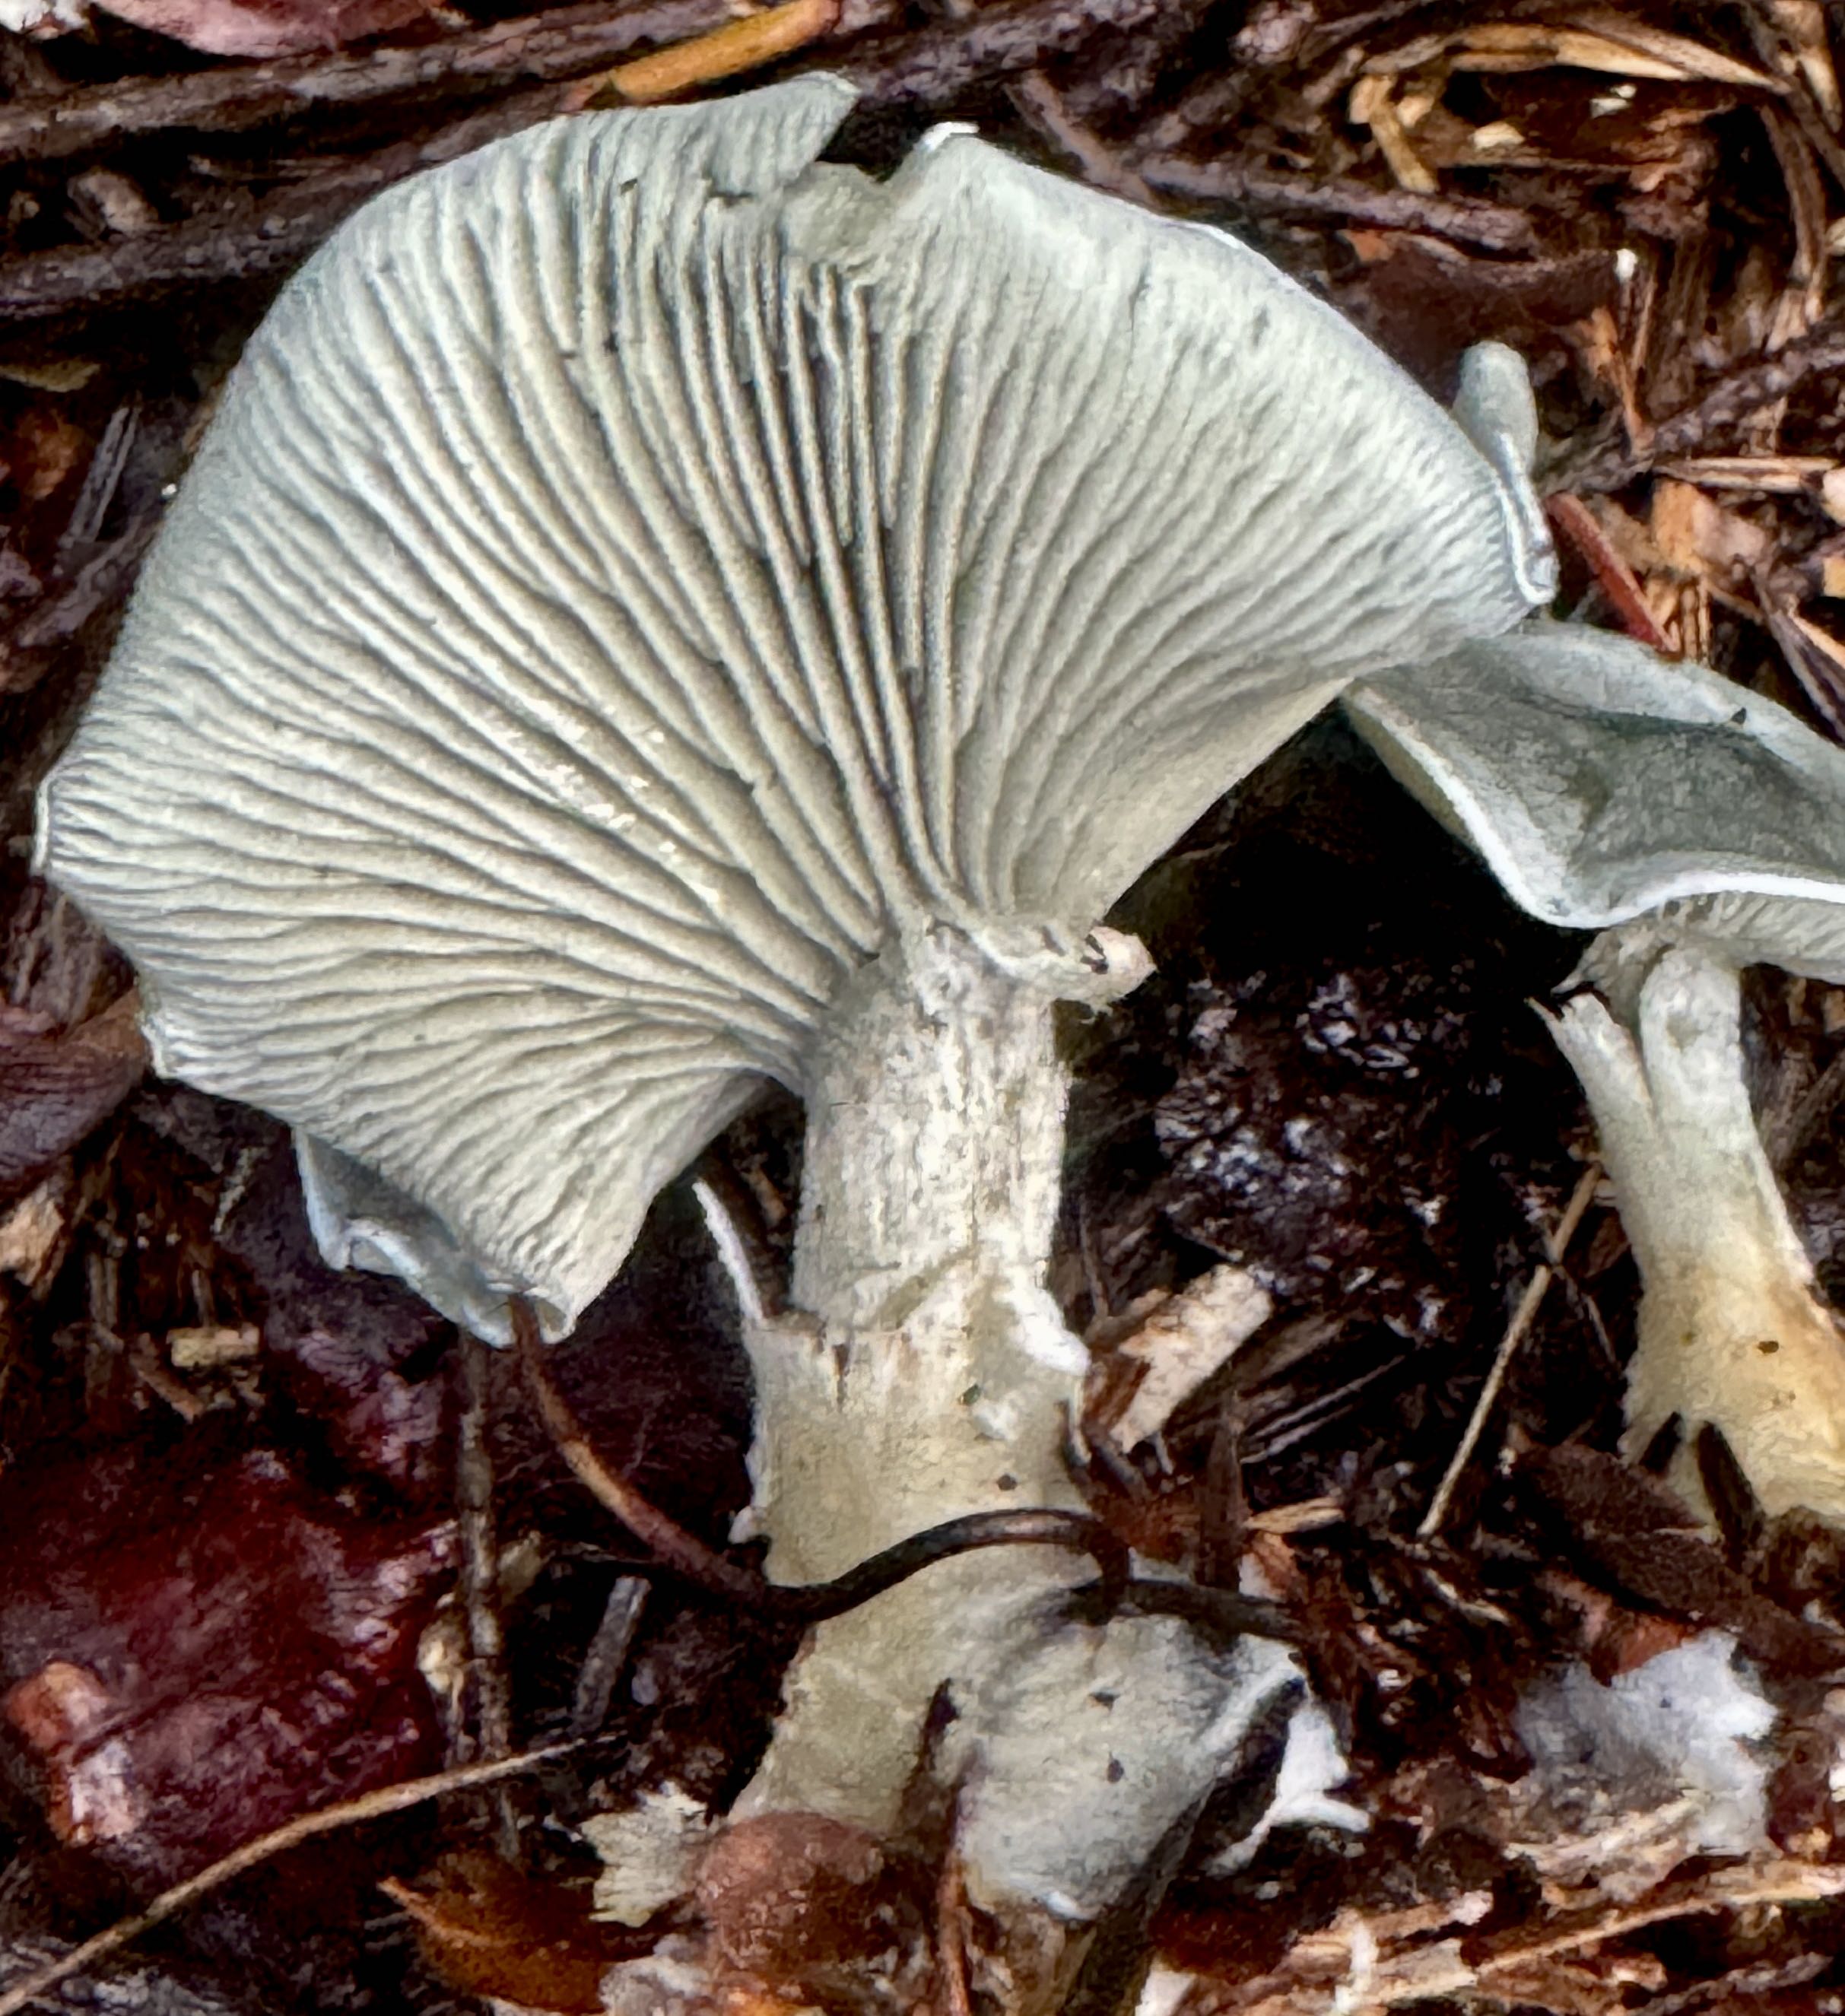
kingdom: Fungi
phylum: Basidiomycota
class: Agaricomycetes
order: Agaricales
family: Tricholomataceae
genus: Clitocybe
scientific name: Clitocybe odora
